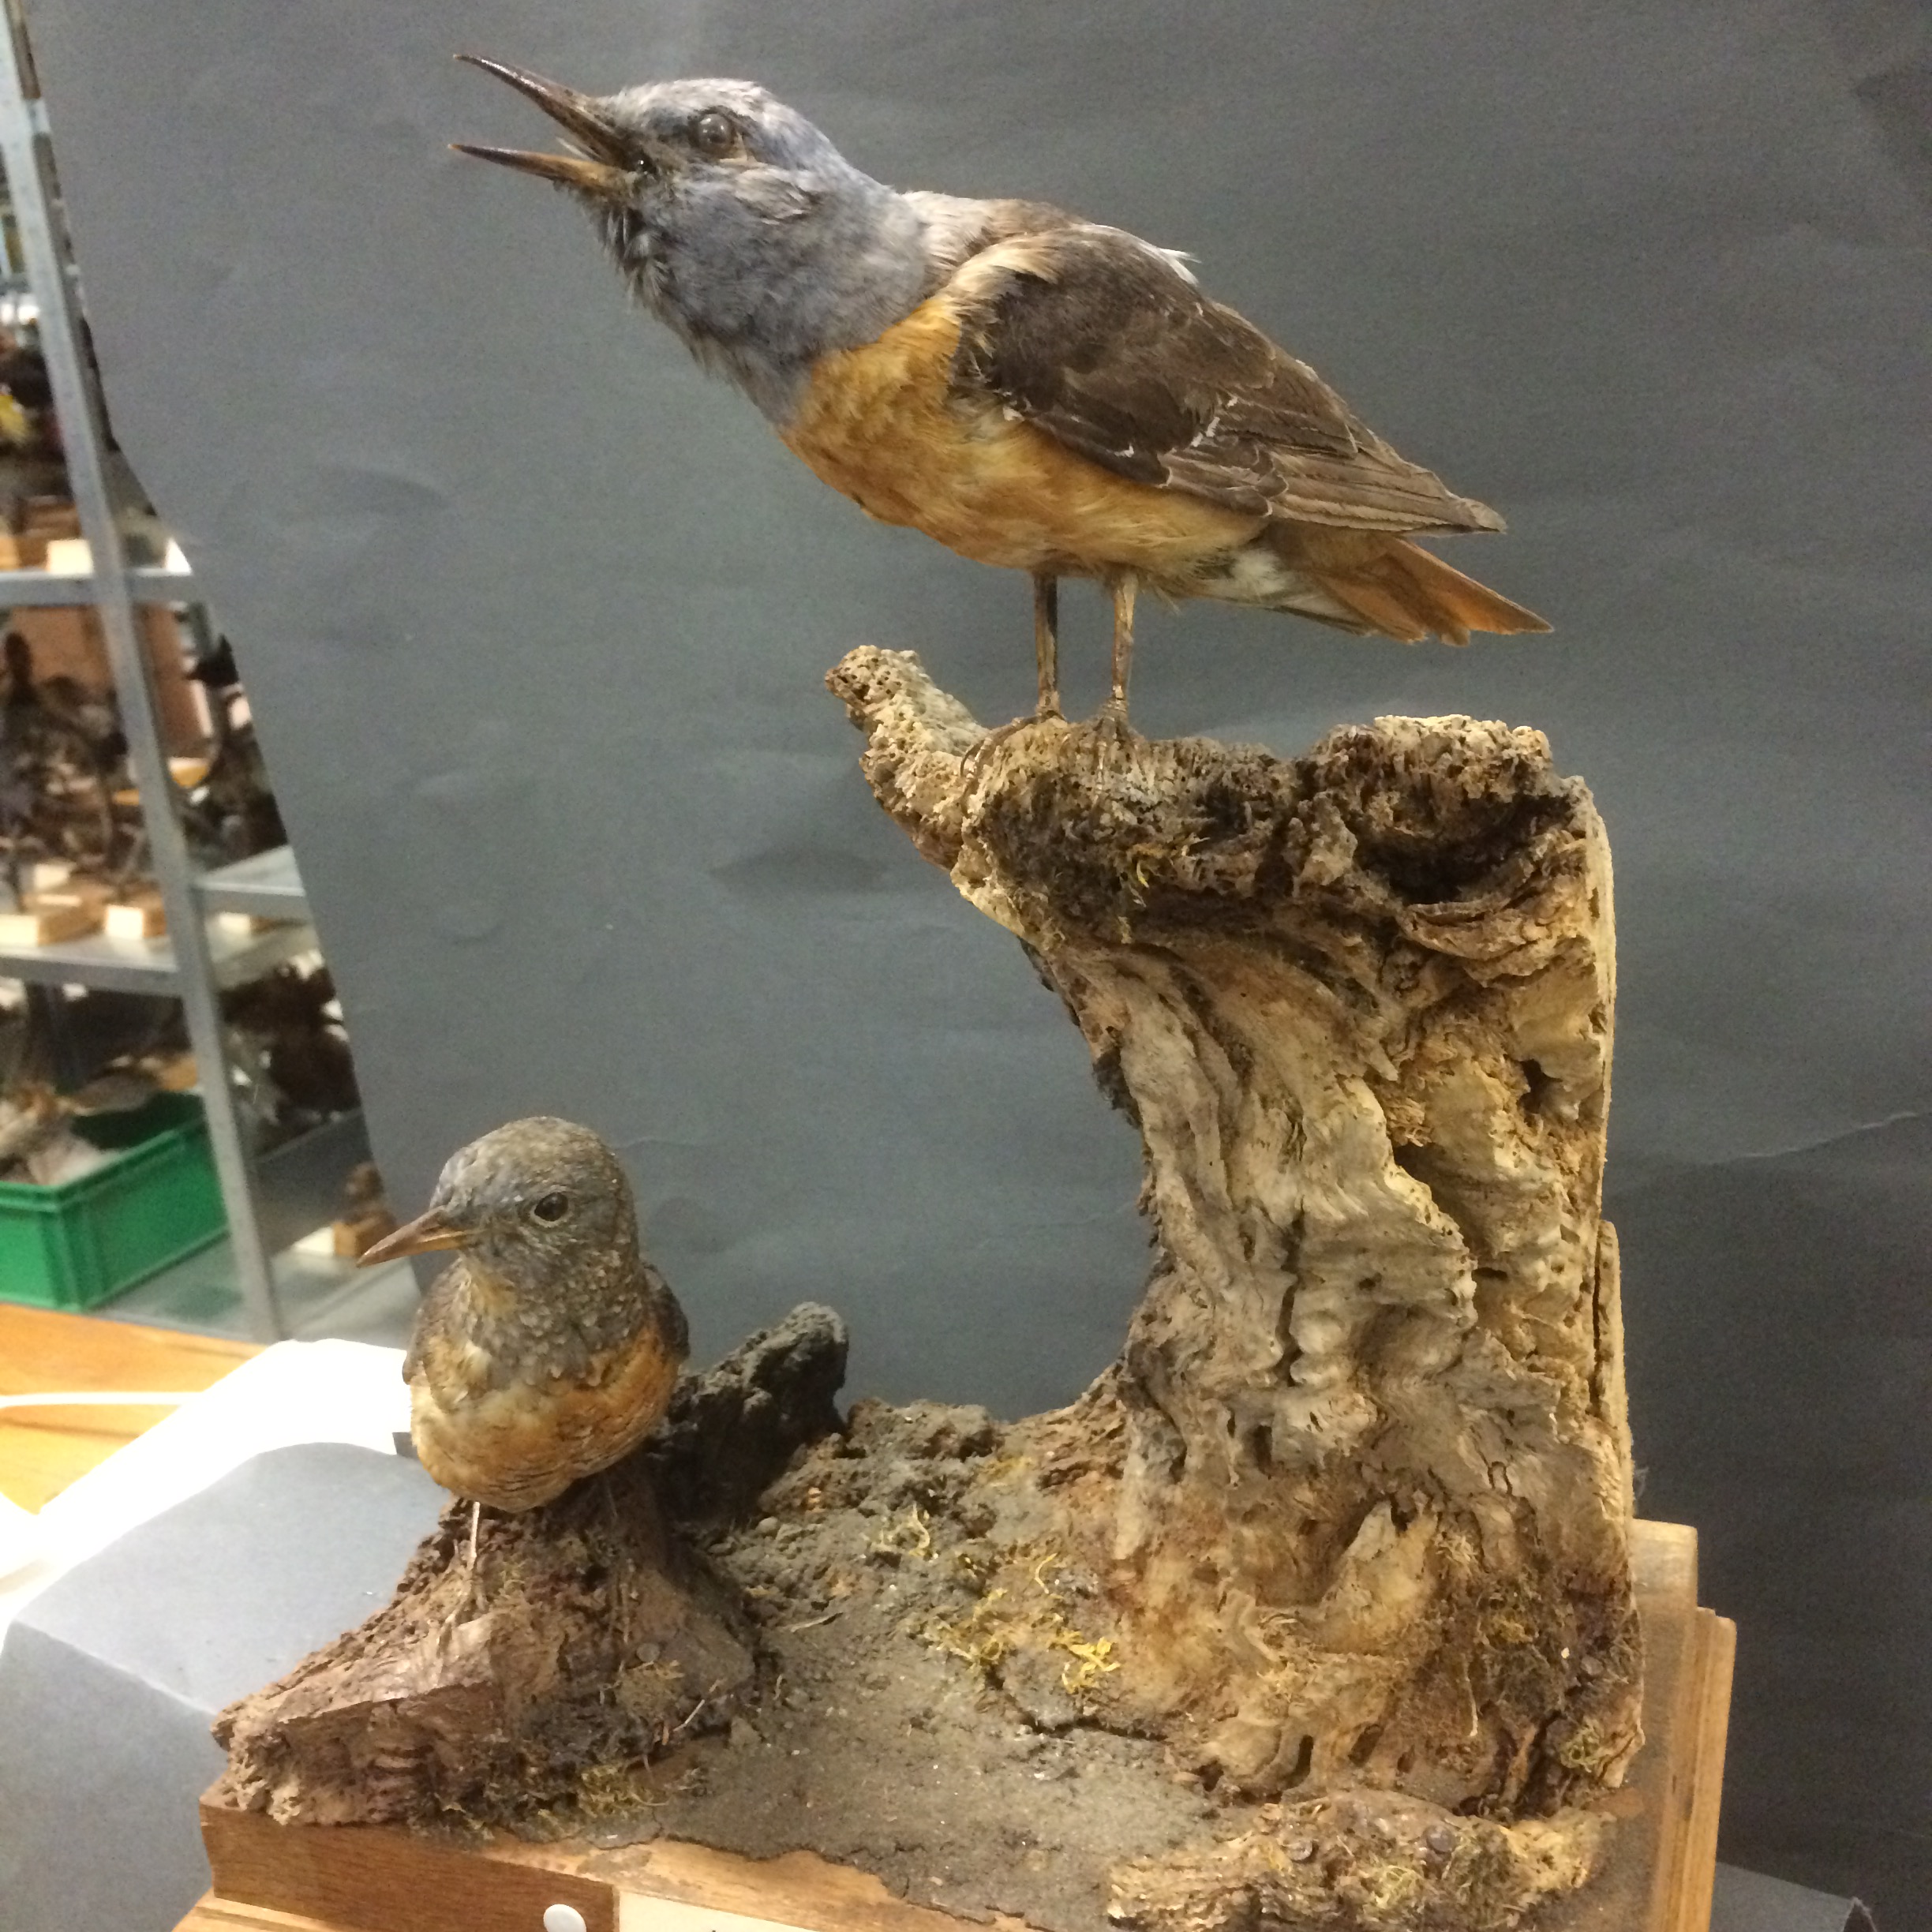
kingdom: Animalia
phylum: Chordata
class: Aves
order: Passeriformes
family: Muscicapidae
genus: Monticola
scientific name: Monticola saxatilis
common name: Rufous-tailed rock thrush
